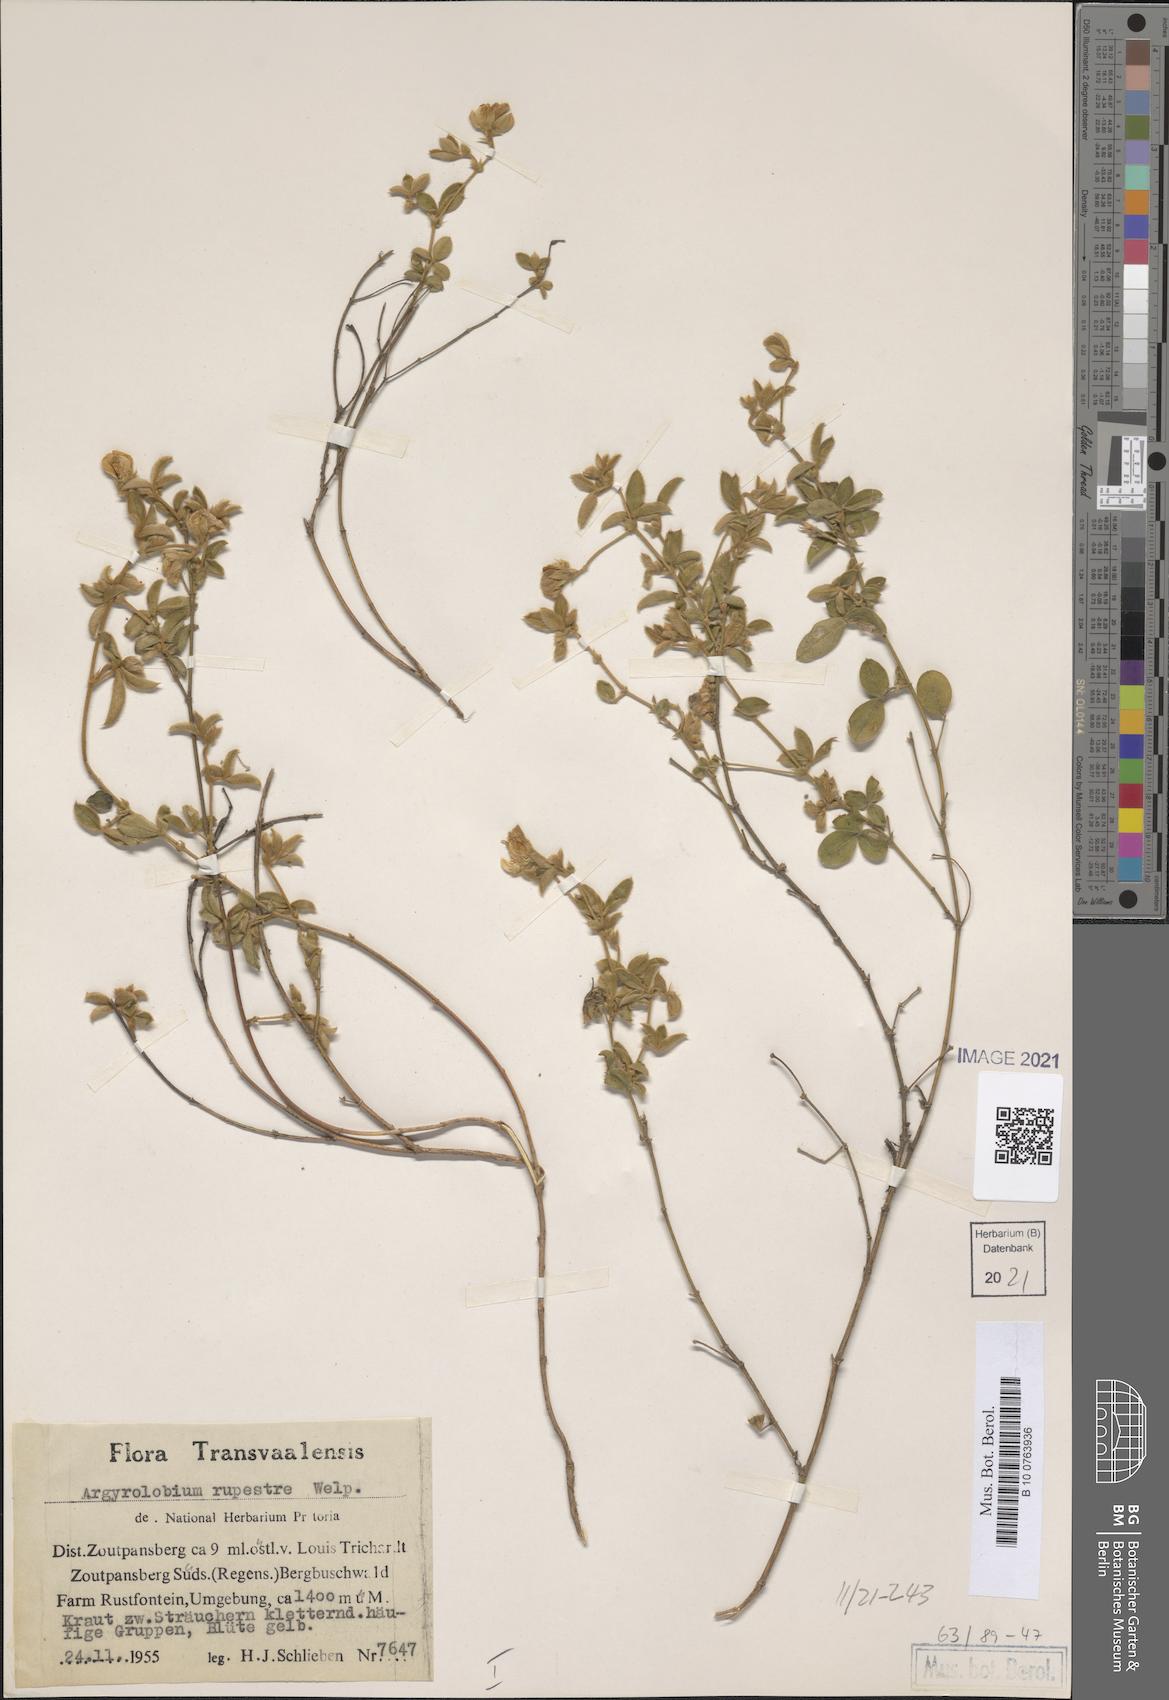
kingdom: Plantae
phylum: Tracheophyta
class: Magnoliopsida
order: Fabales
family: Fabaceae
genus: Argyrolobium
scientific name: Argyrolobium rupestre
